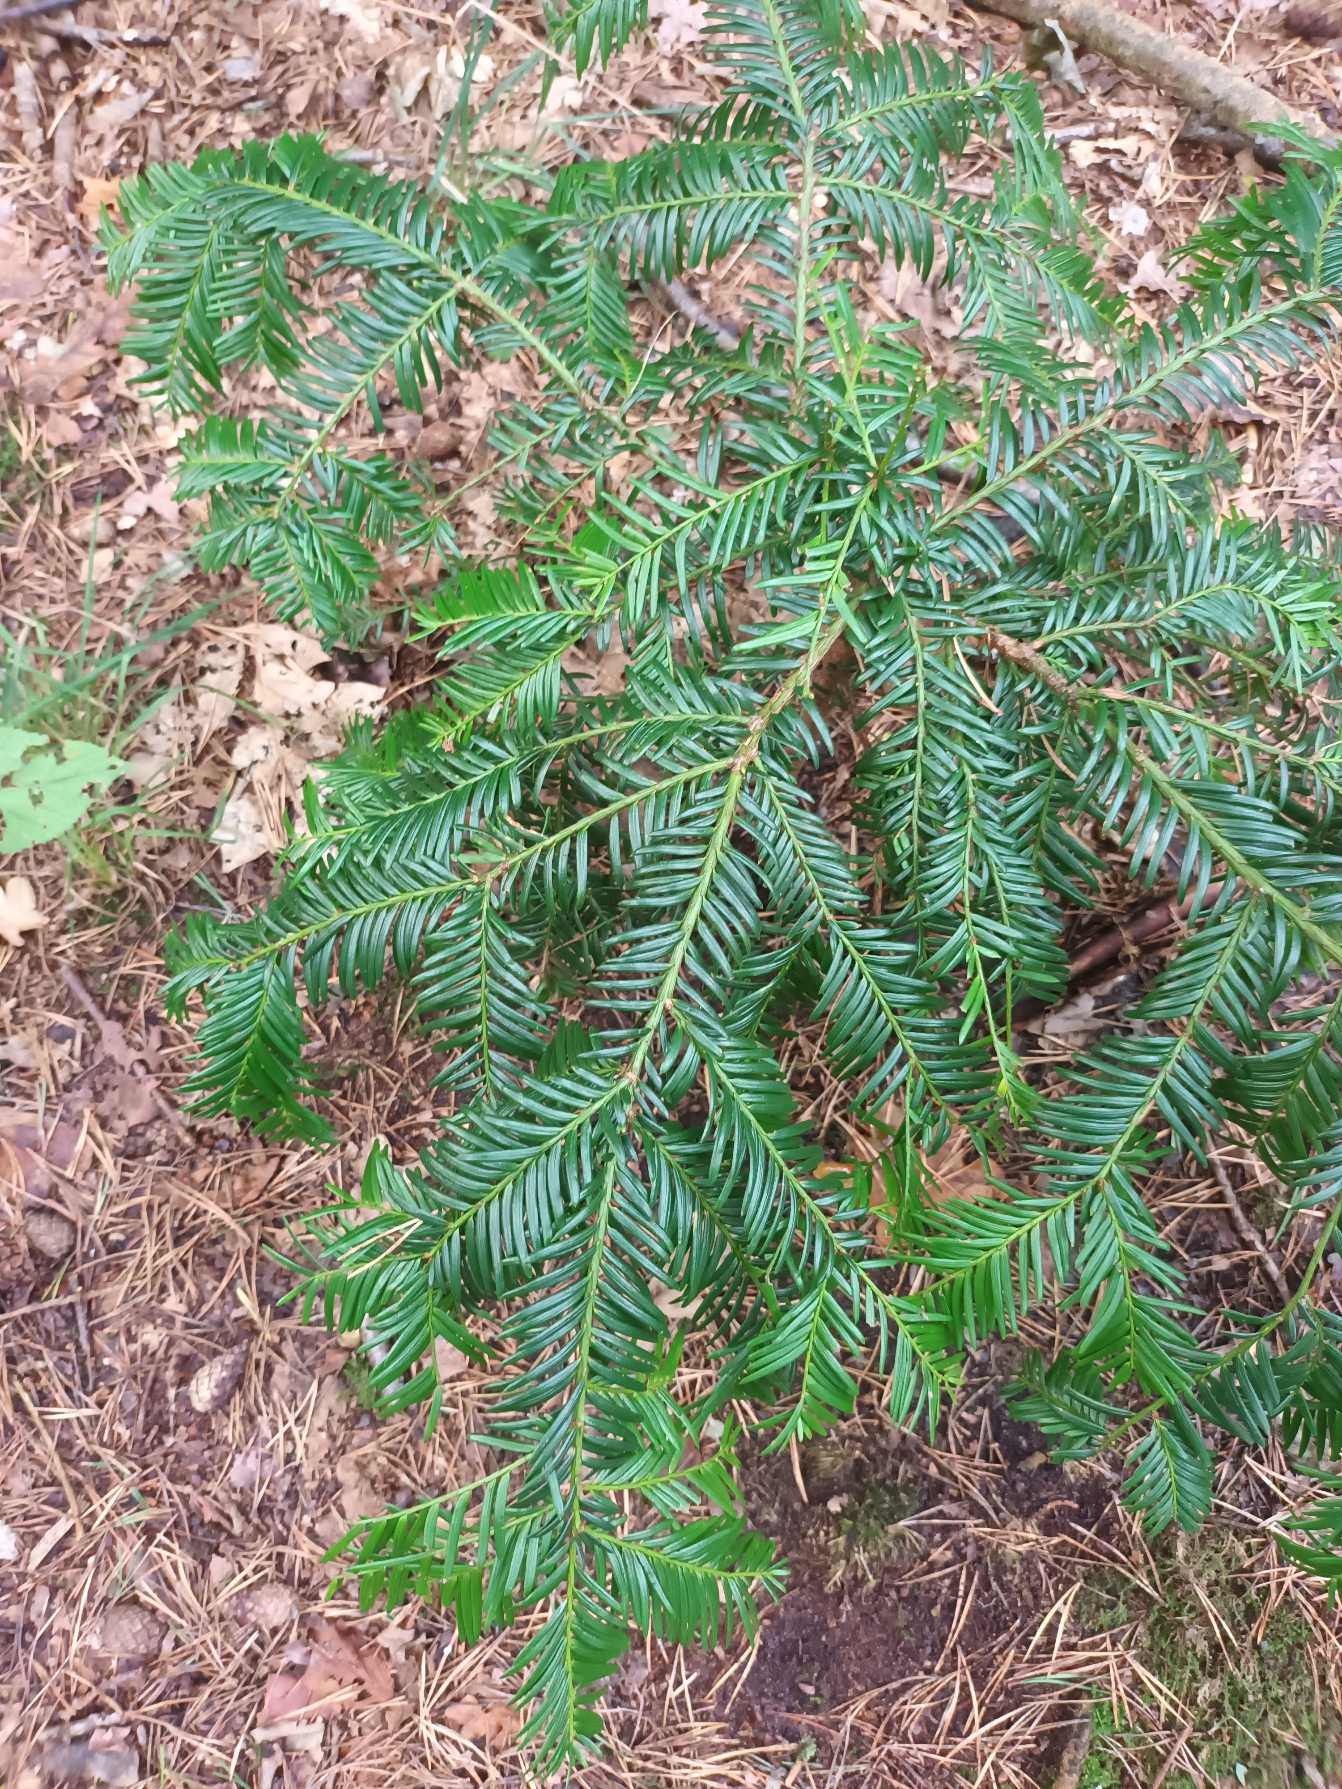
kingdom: Plantae
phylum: Tracheophyta
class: Pinopsida
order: Pinales
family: Taxaceae
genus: Taxus
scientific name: Taxus baccata
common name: Almindelig taks
